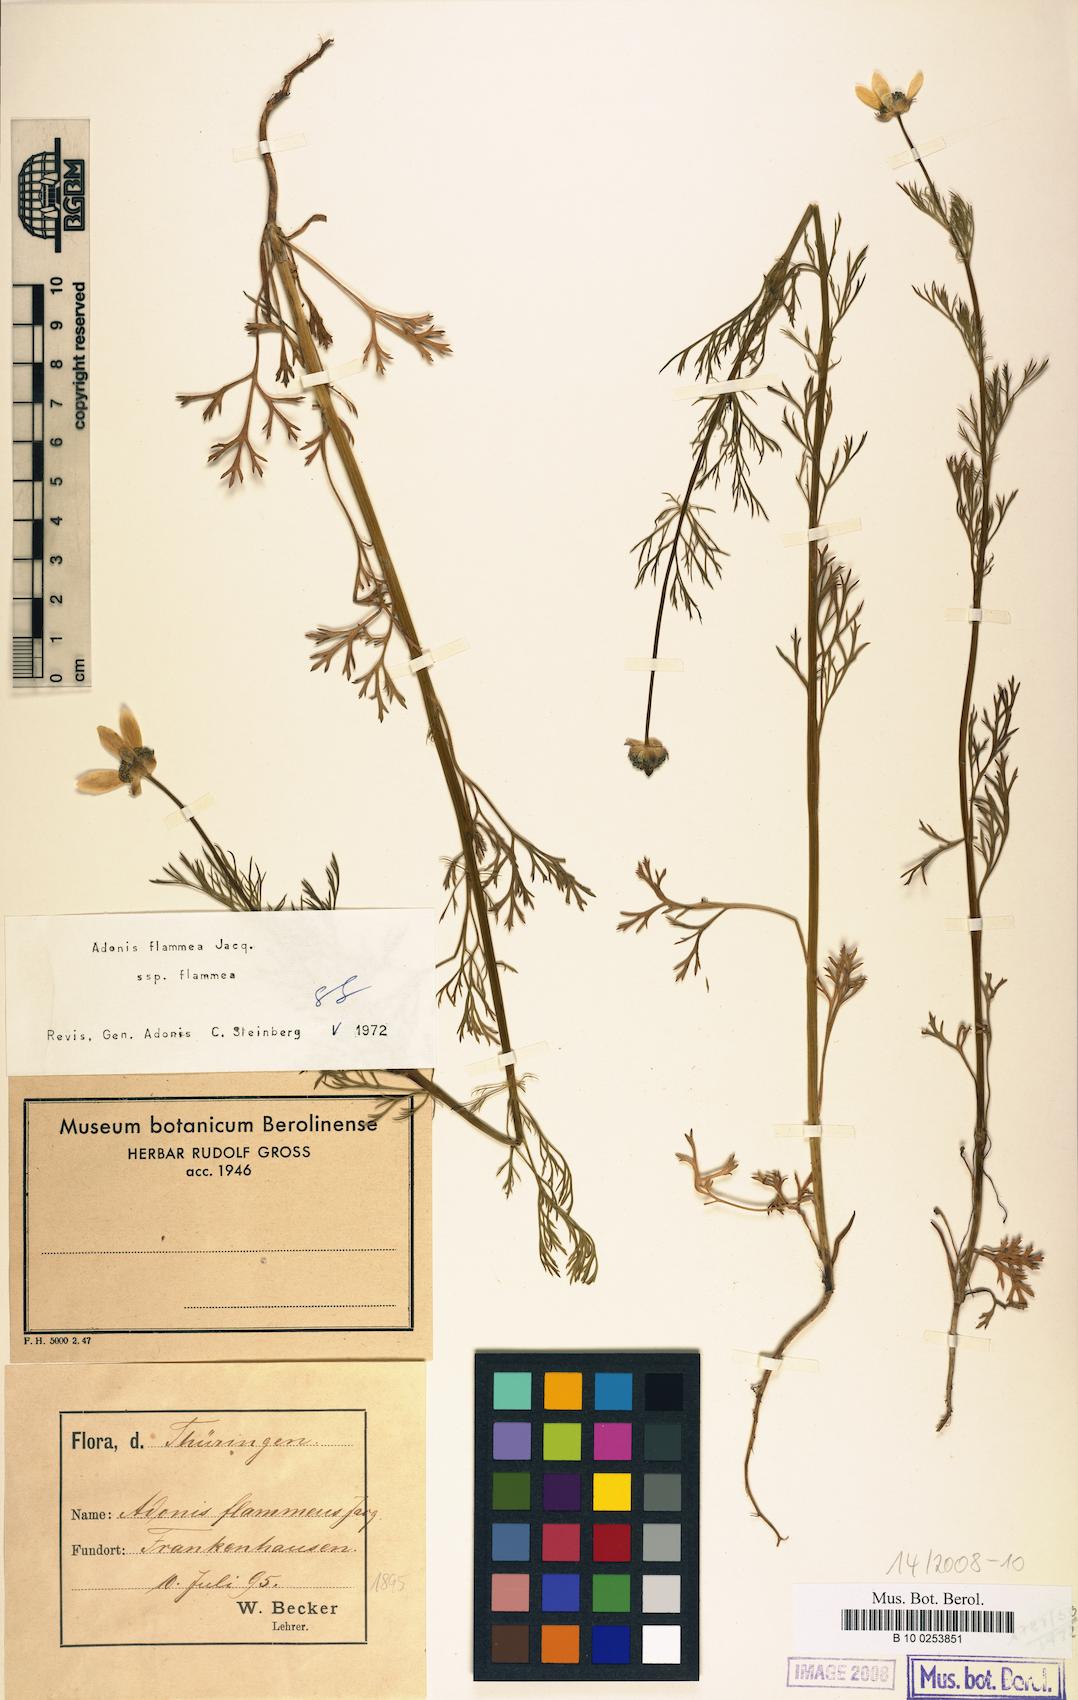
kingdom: Plantae
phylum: Tracheophyta
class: Magnoliopsida
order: Ranunculales
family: Ranunculaceae
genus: Adonis
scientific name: Adonis flammea
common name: Large pheasant's-eye
